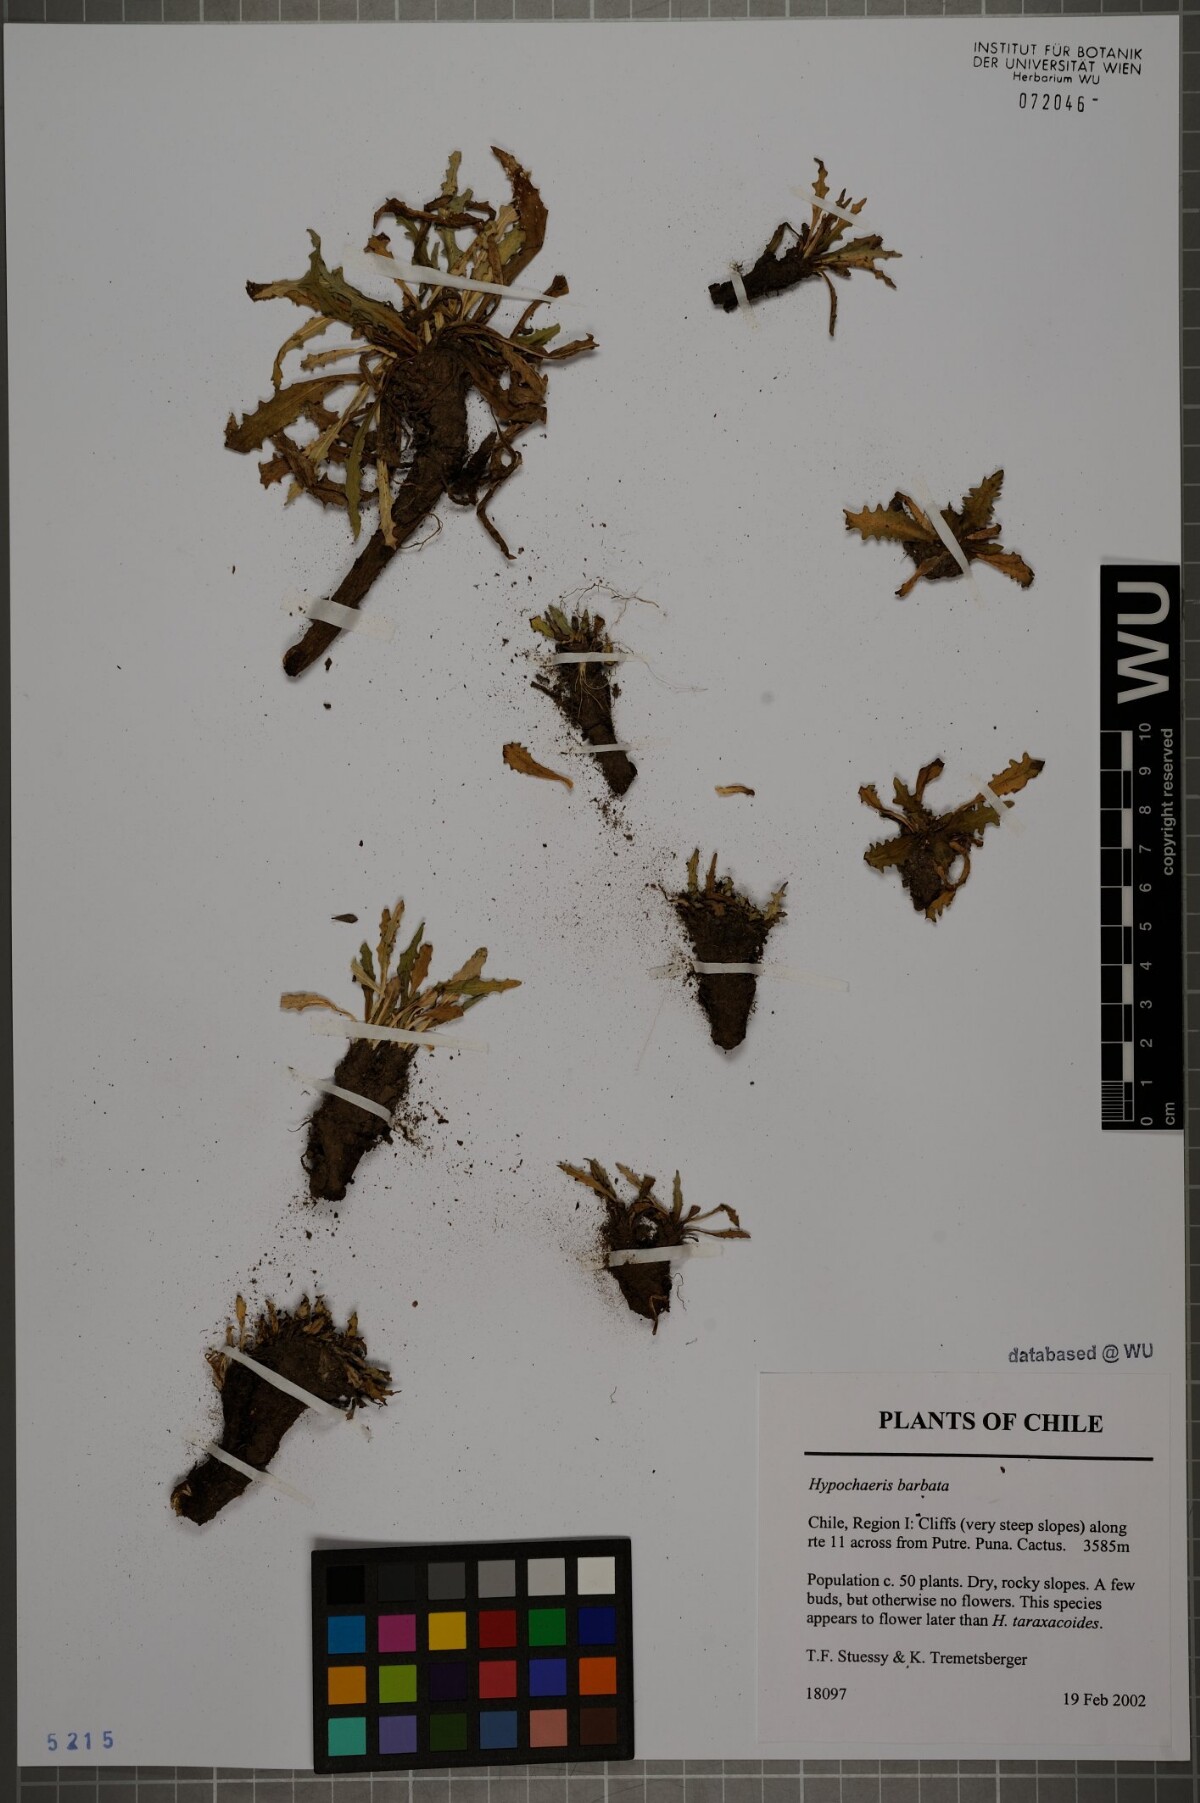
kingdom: Plantae
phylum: Tracheophyta
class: Magnoliopsida
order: Asterales
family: Asteraceae
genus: Hypochaeris
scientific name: Hypochaeris sessiliflora
